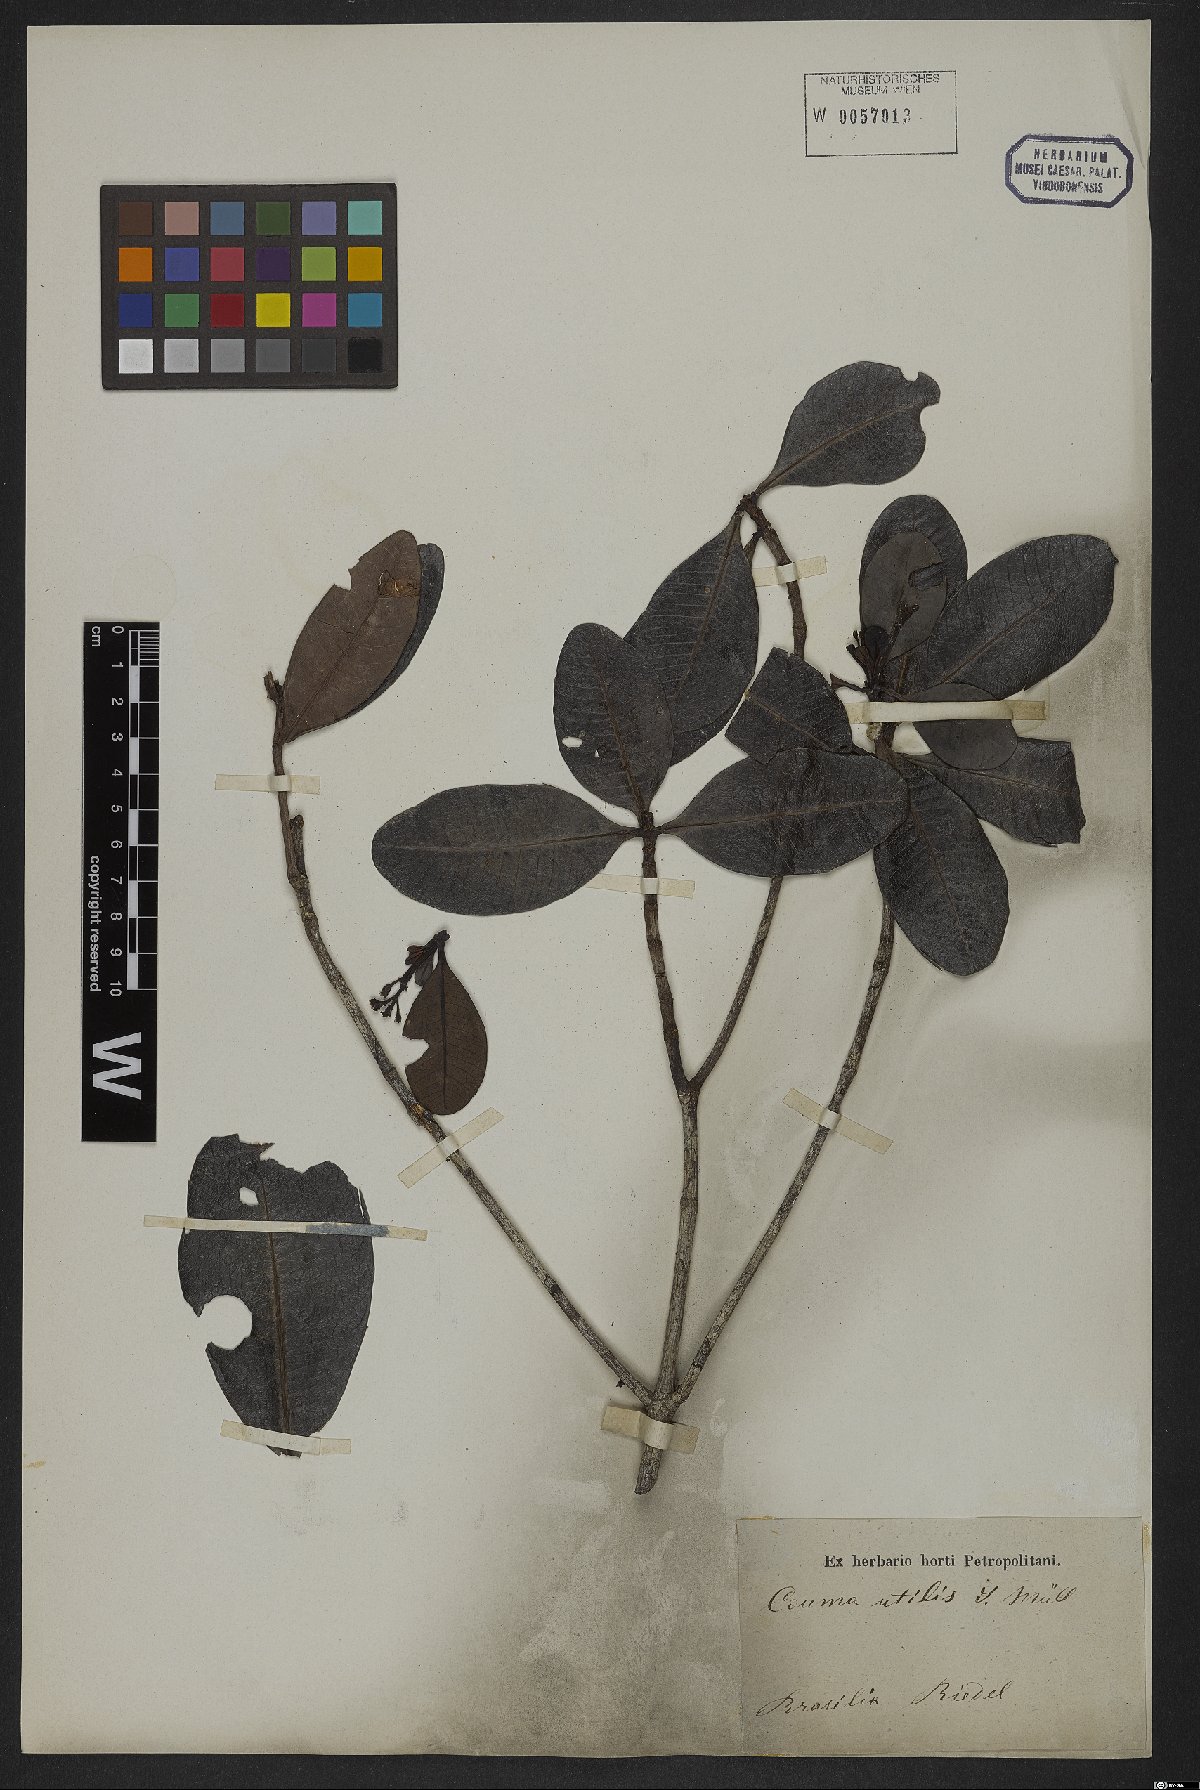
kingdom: Plantae
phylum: Tracheophyta
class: Magnoliopsida
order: Gentianales
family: Apocynaceae
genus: Couma
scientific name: Couma arenicola
